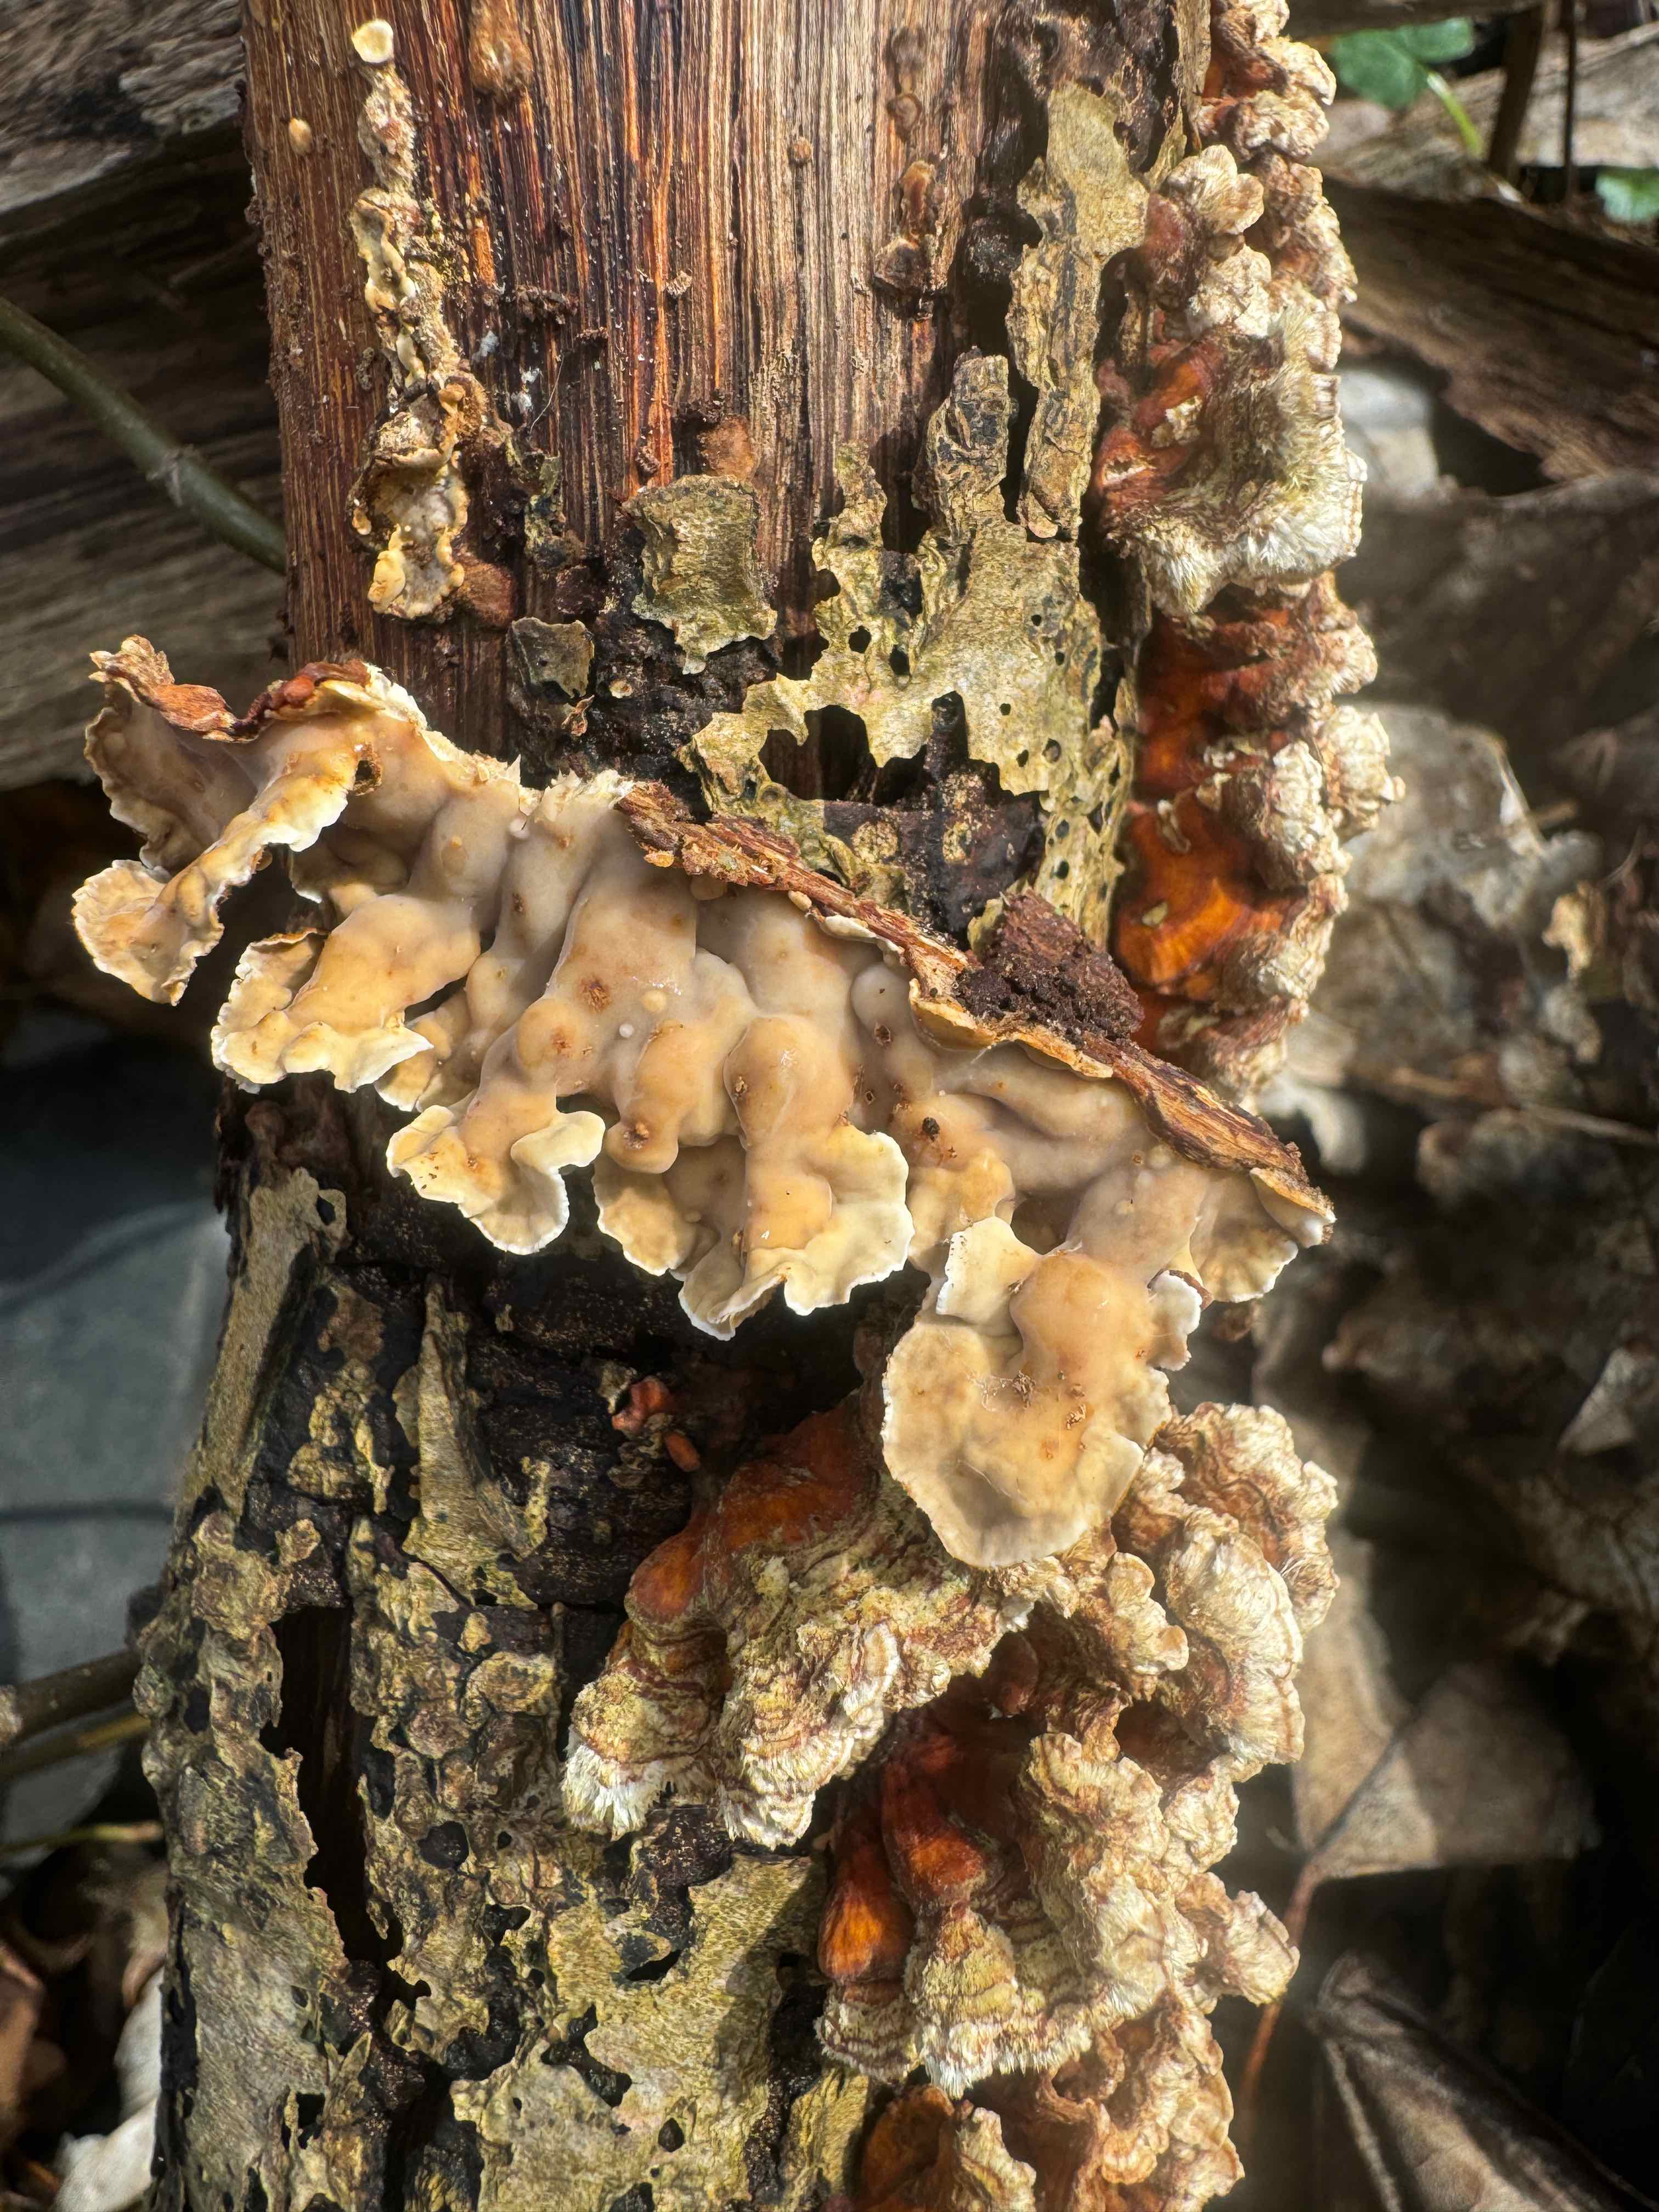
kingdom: Fungi
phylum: Basidiomycota
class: Agaricomycetes
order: Russulales
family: Stereaceae
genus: Stereum
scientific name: Stereum subtomentosum
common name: smuk lædersvamp
